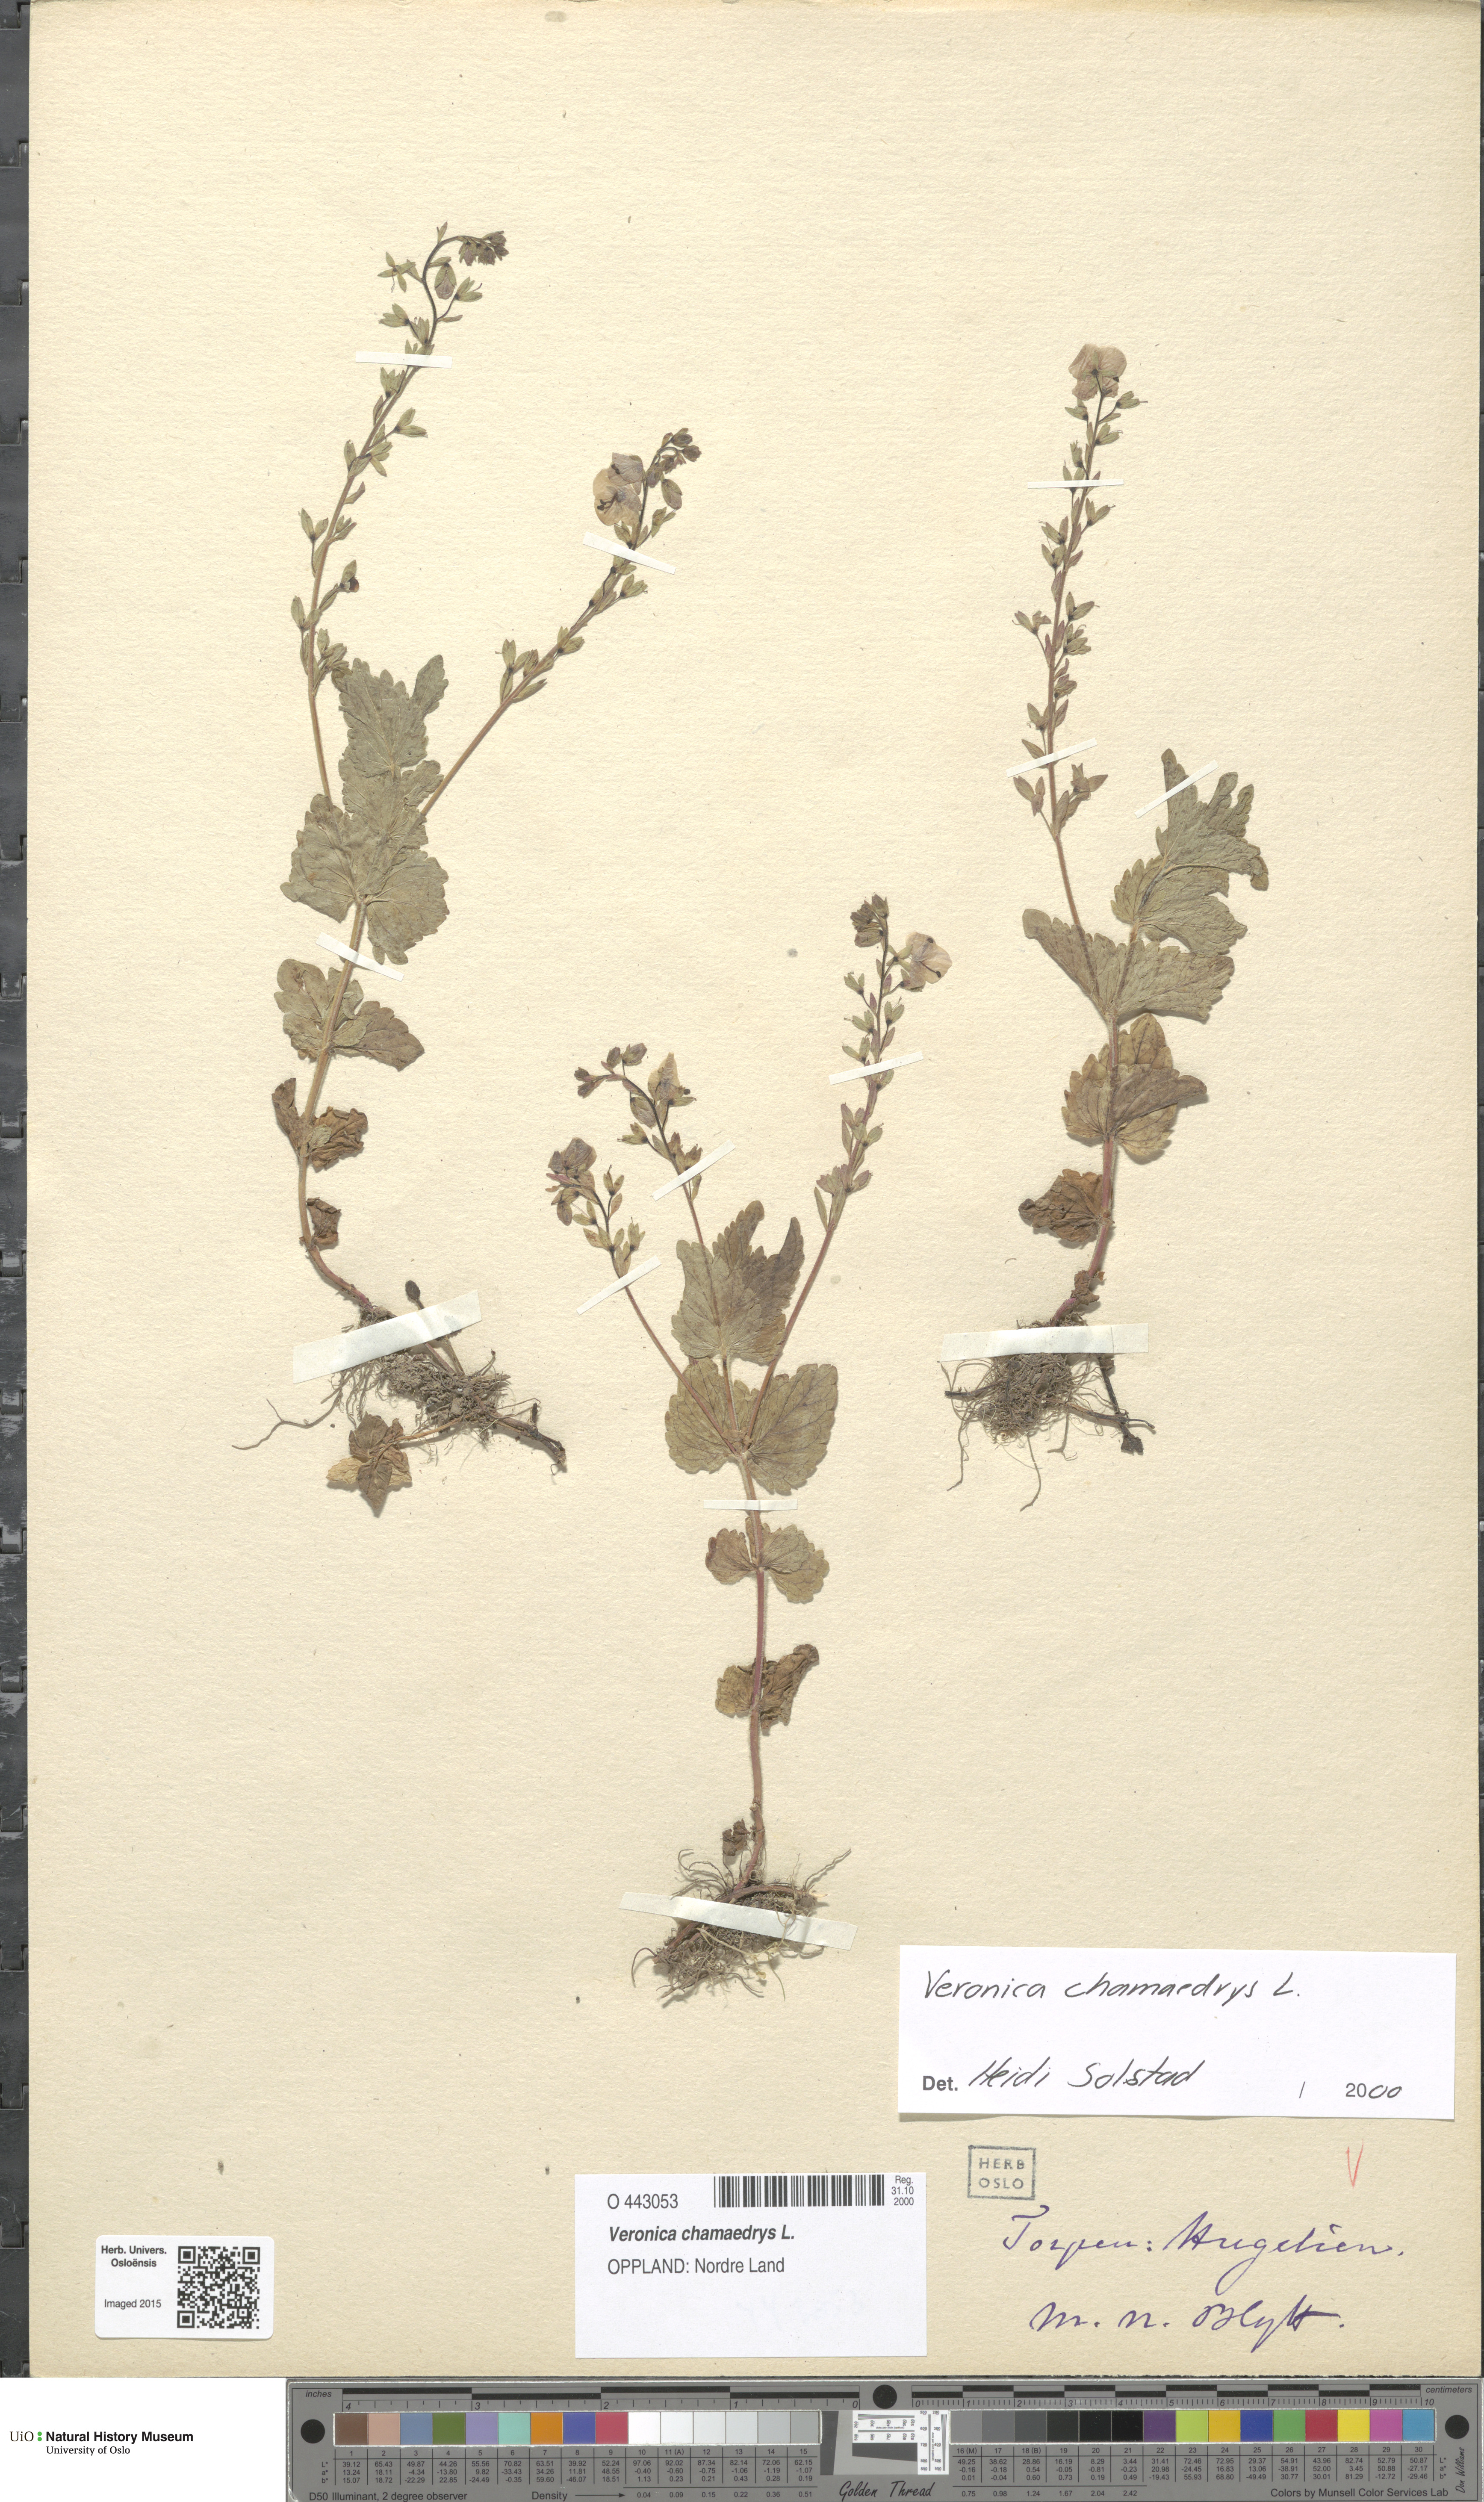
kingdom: Plantae
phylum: Tracheophyta
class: Magnoliopsida
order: Lamiales
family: Plantaginaceae
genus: Veronica
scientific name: Veronica chamaedrys
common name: Germander speedwell
